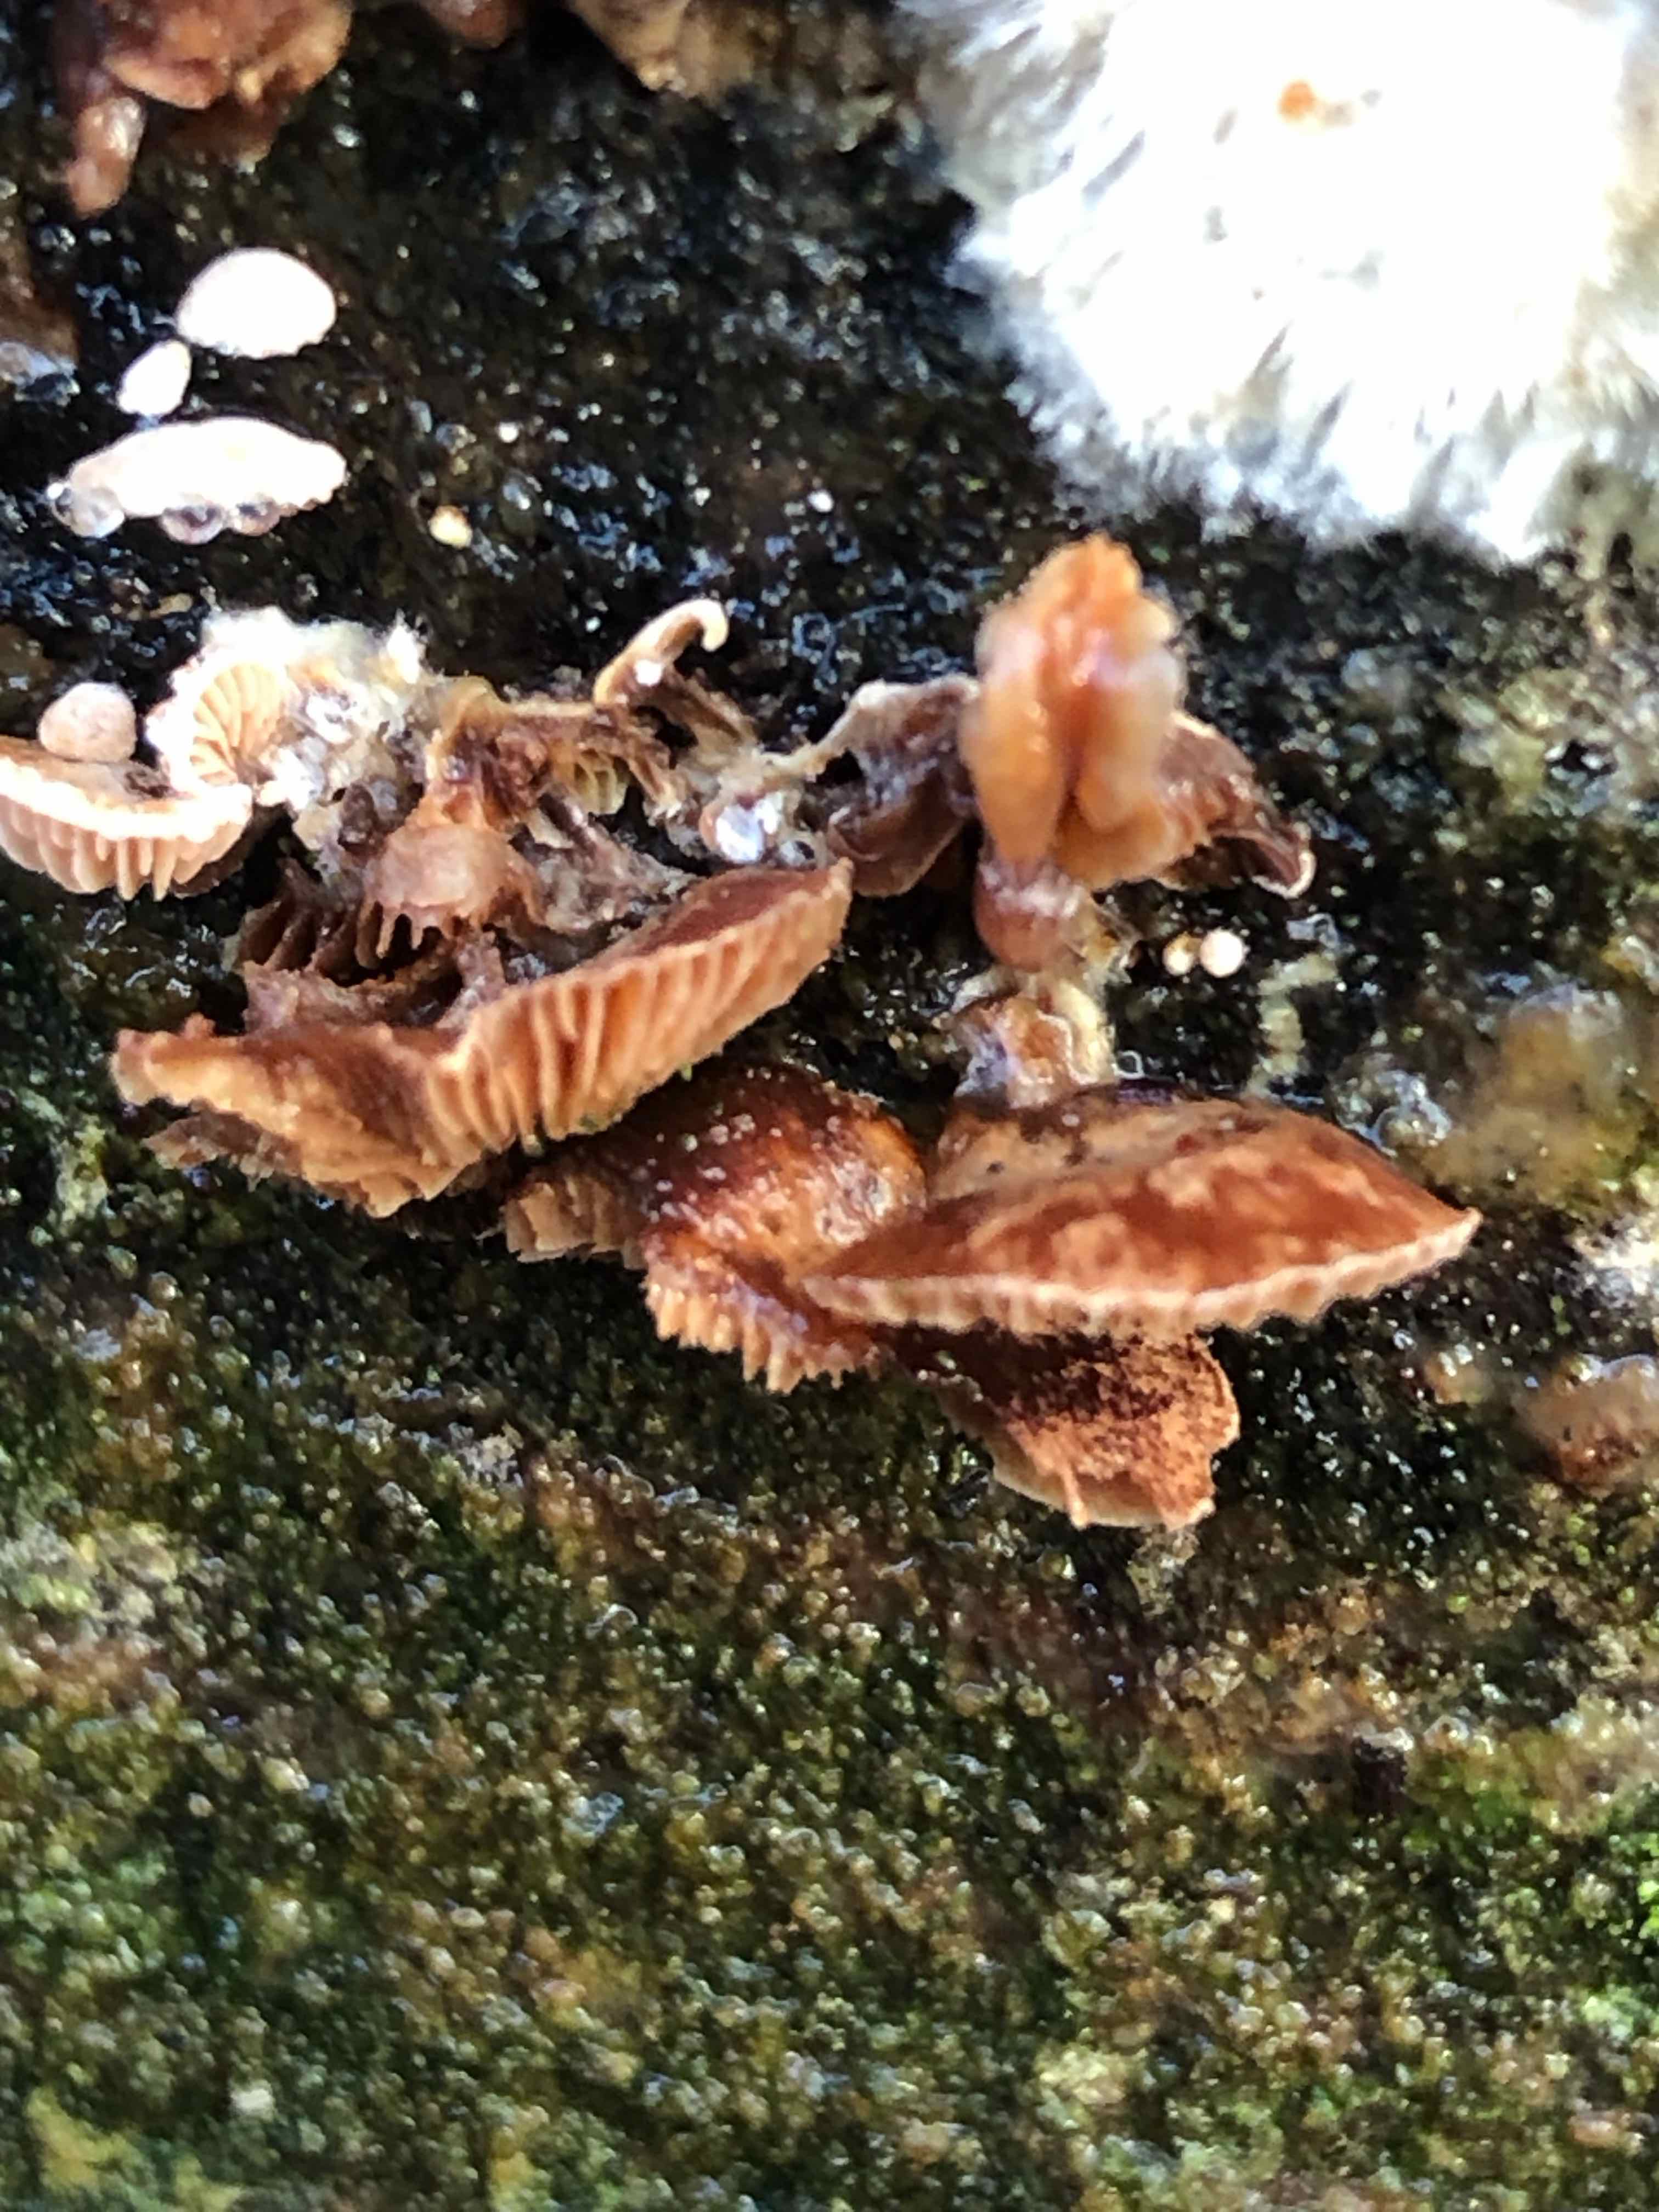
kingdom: Fungi
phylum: Basidiomycota
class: Agaricomycetes
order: Agaricales
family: Strophariaceae
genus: Deconica
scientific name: Deconica horizontalis
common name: ved-stråhat
